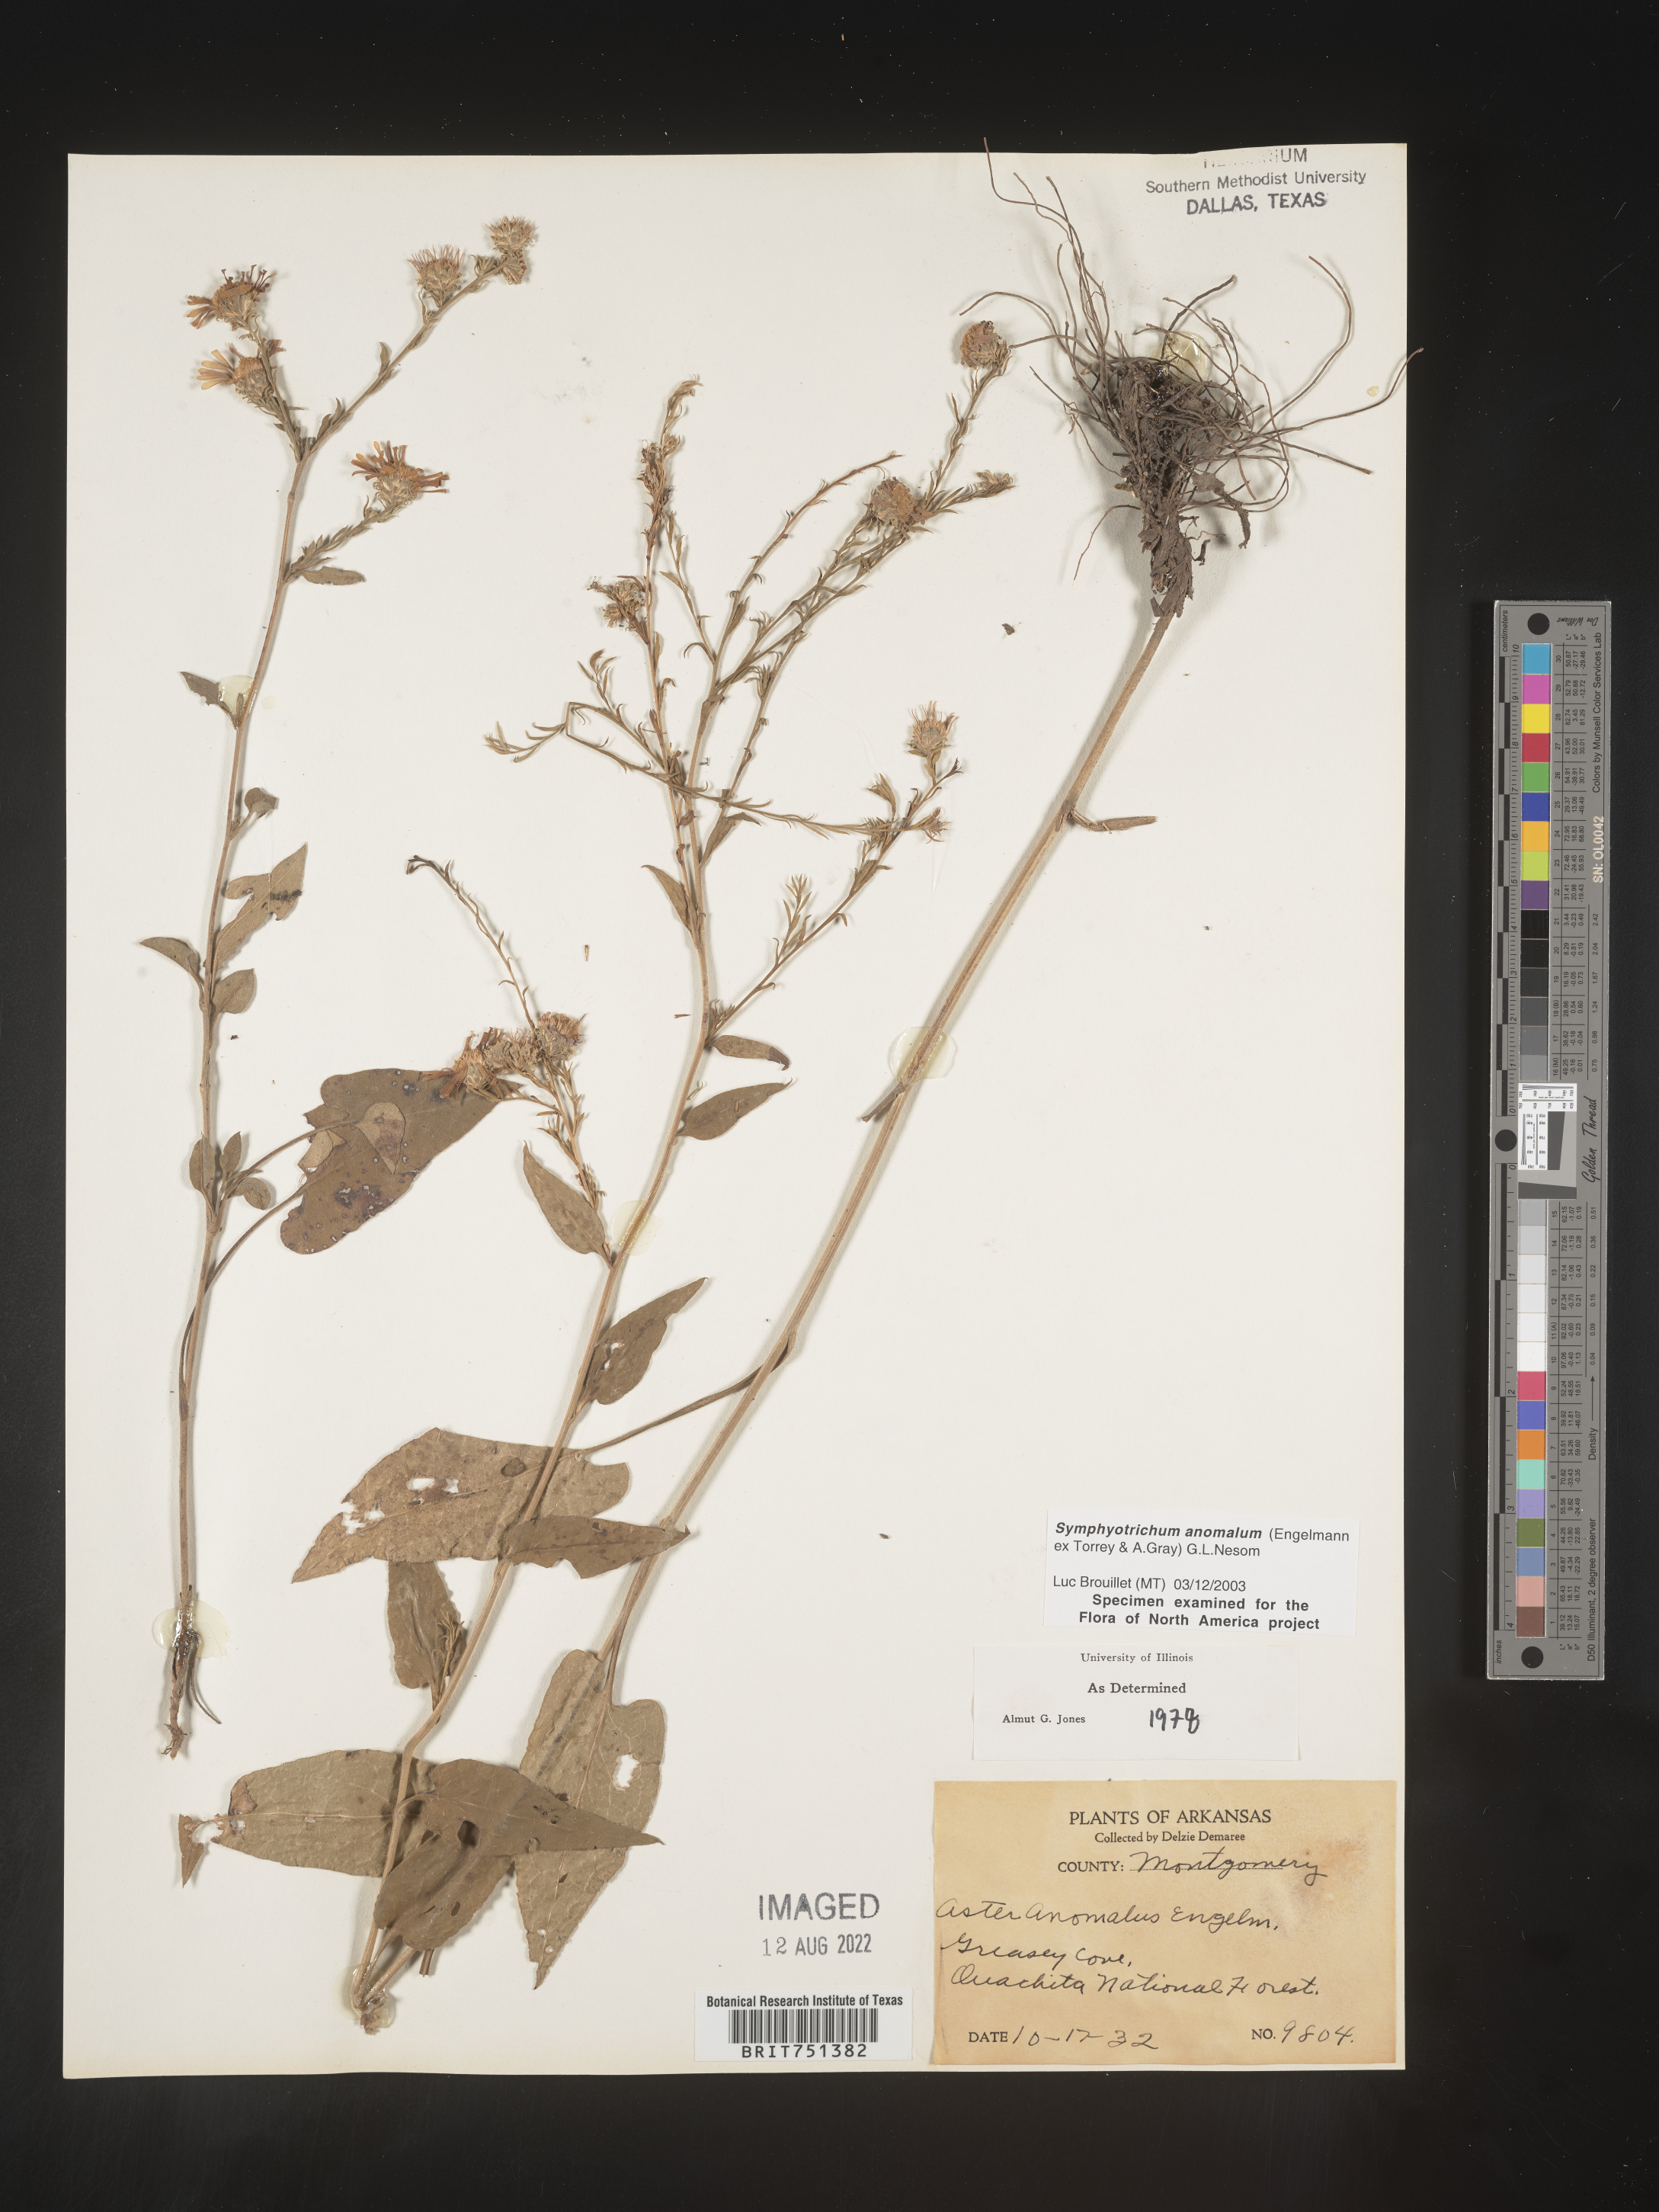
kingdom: Plantae
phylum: Tracheophyta
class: Magnoliopsida
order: Asterales
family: Asteraceae
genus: Symphyotrichum
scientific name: Symphyotrichum anomalum
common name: Many-ray aster
